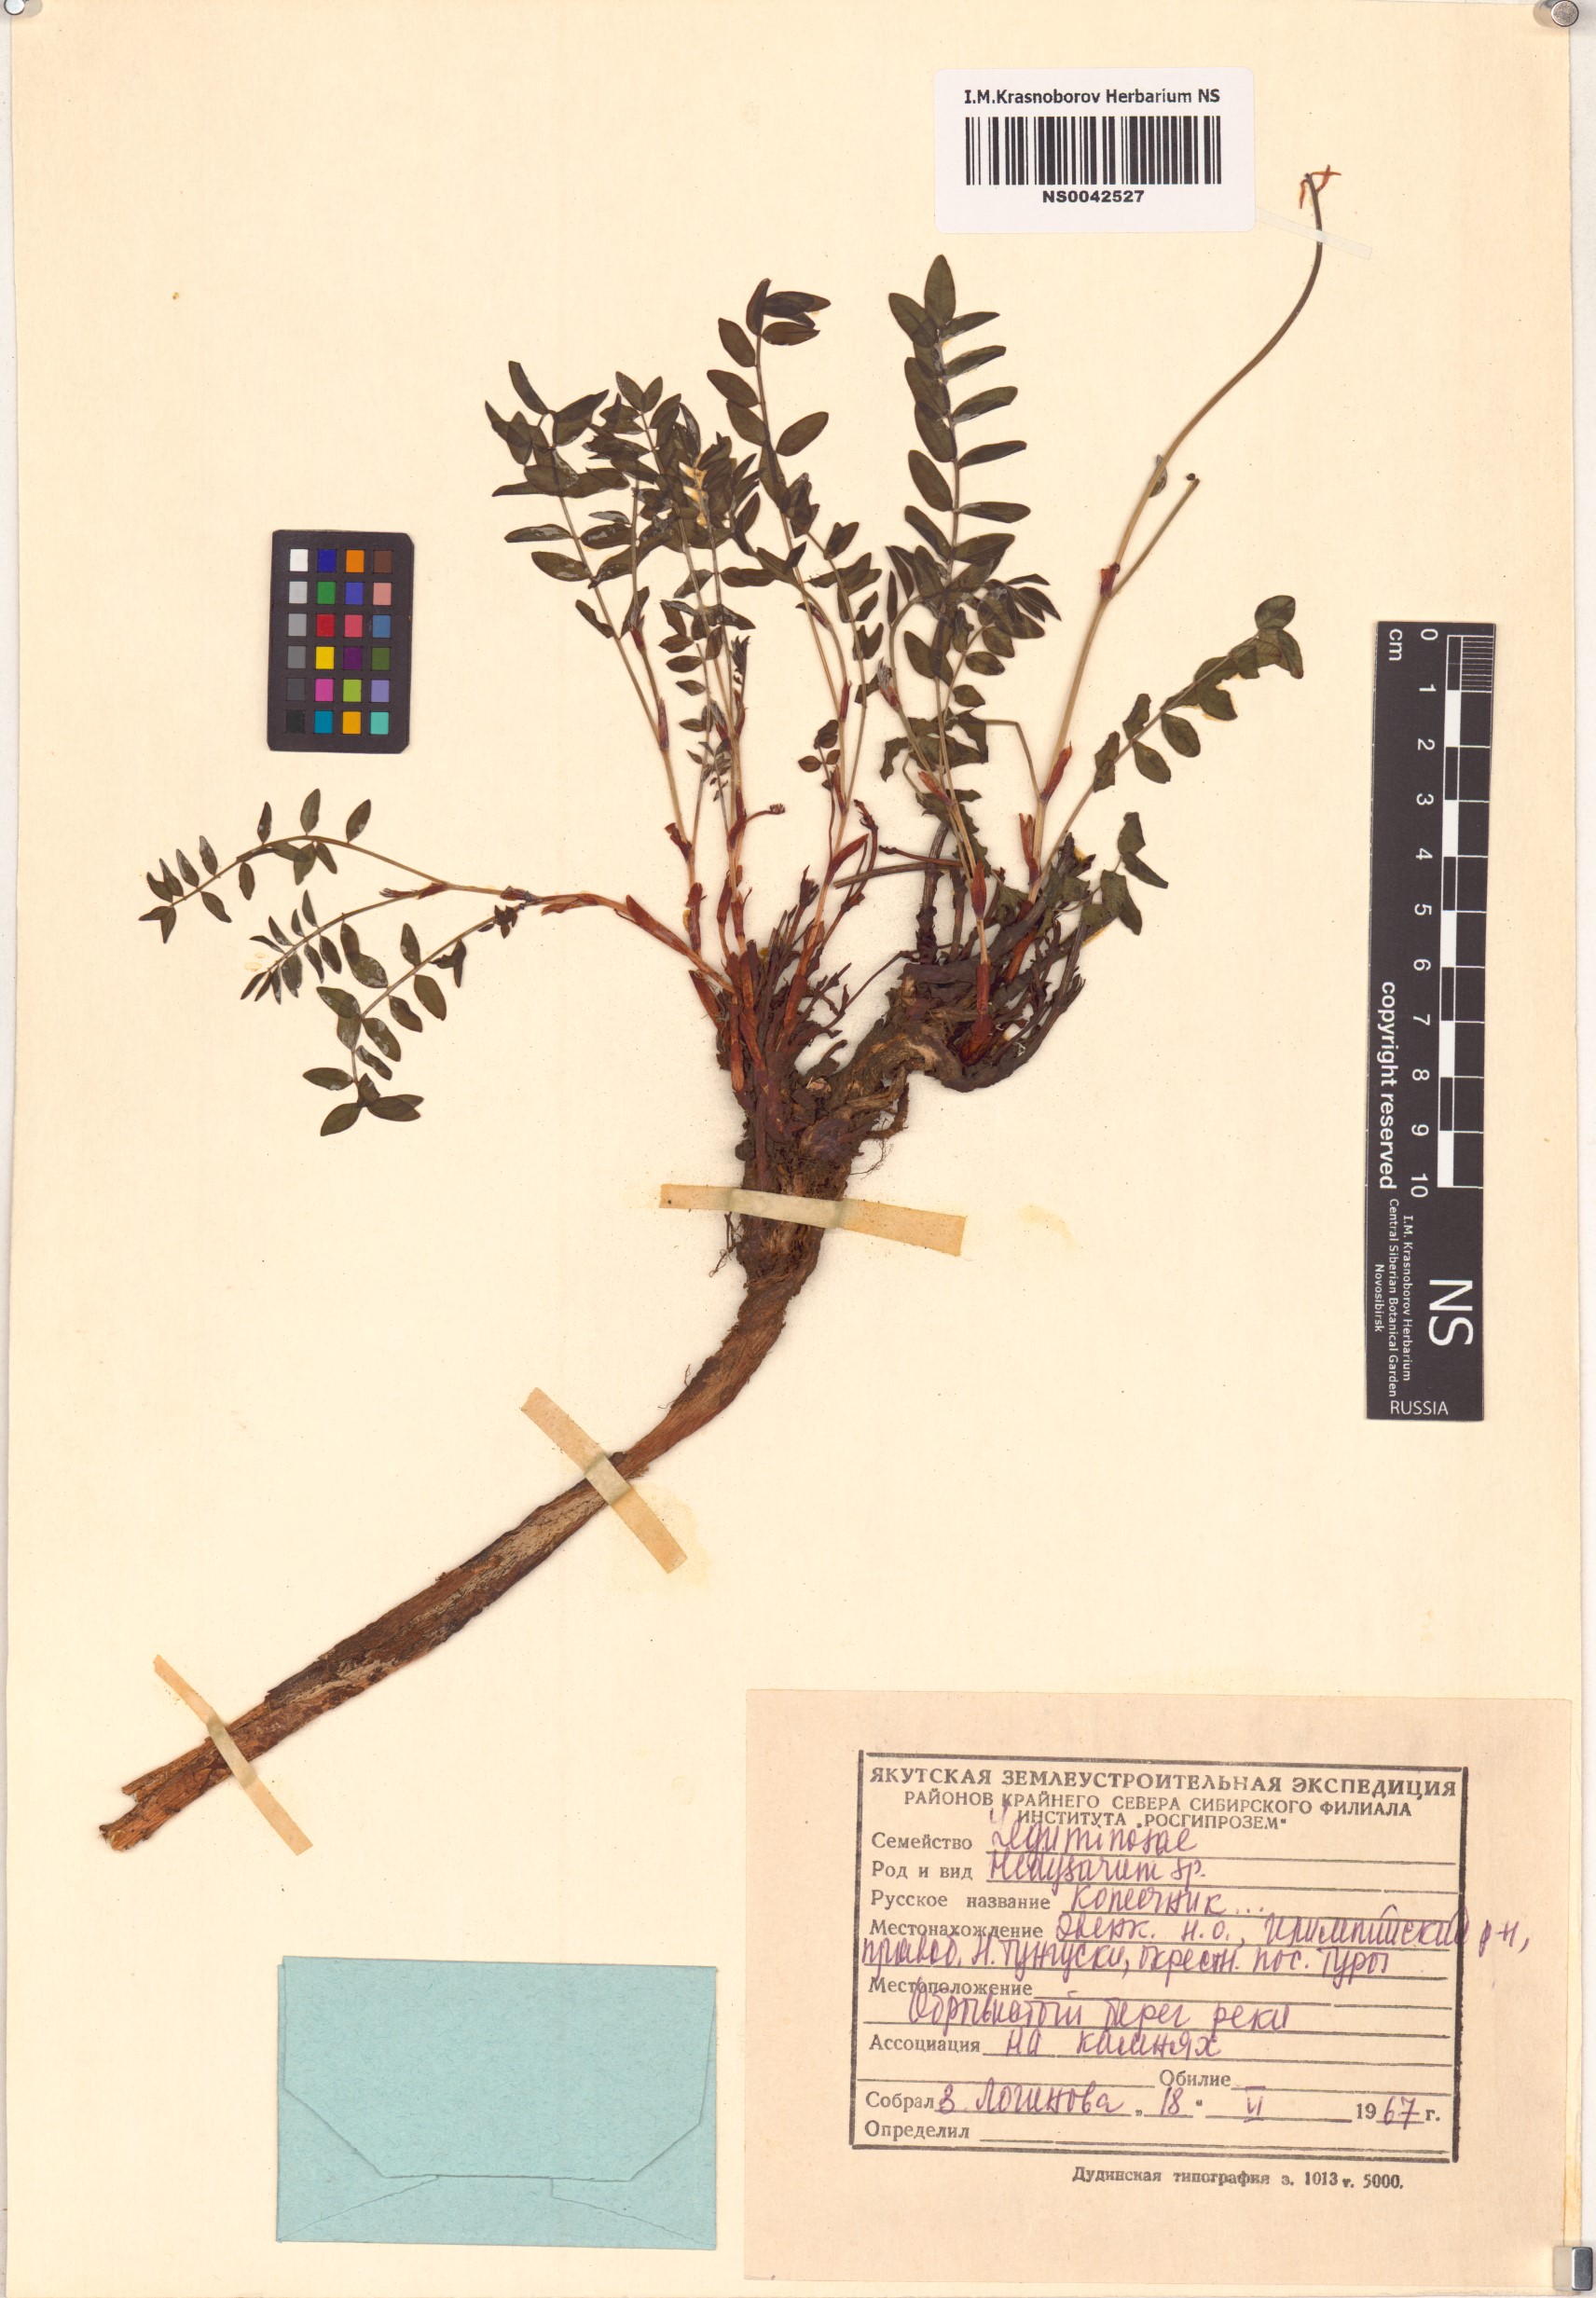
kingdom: Plantae
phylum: Tracheophyta
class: Magnoliopsida
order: Fabales
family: Fabaceae
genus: Hedysarum
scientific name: Hedysarum
